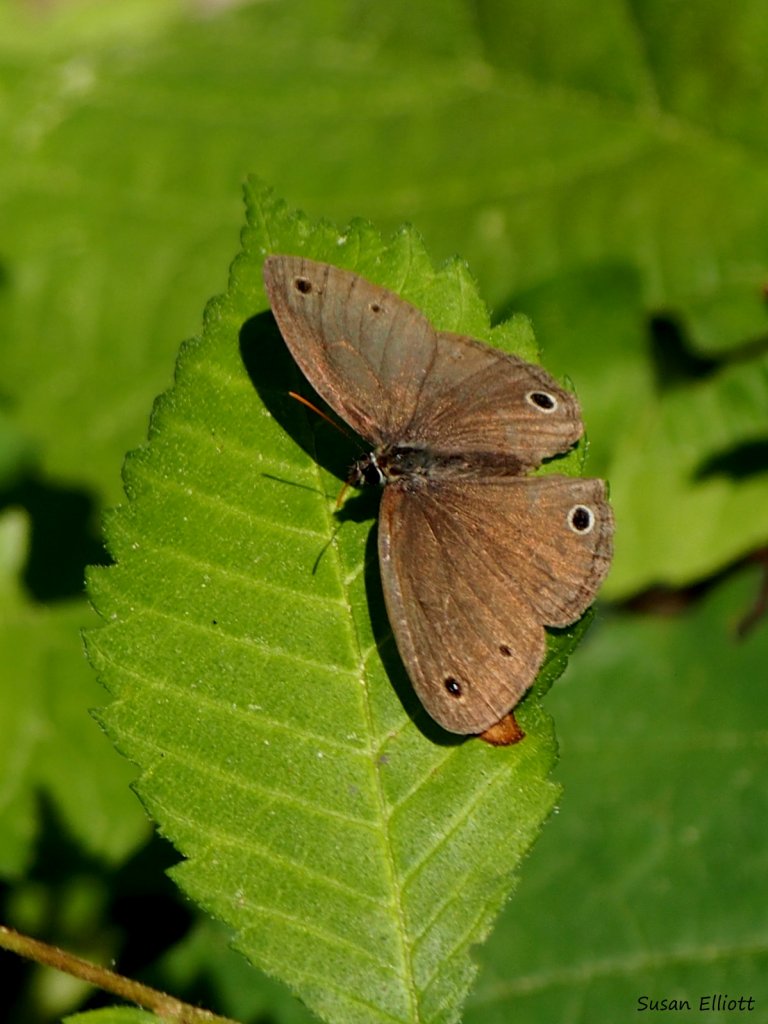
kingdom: Animalia
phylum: Arthropoda
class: Insecta
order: Lepidoptera
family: Nymphalidae
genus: Euptychia
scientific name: Euptychia cymela
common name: Little Wood Satyr
